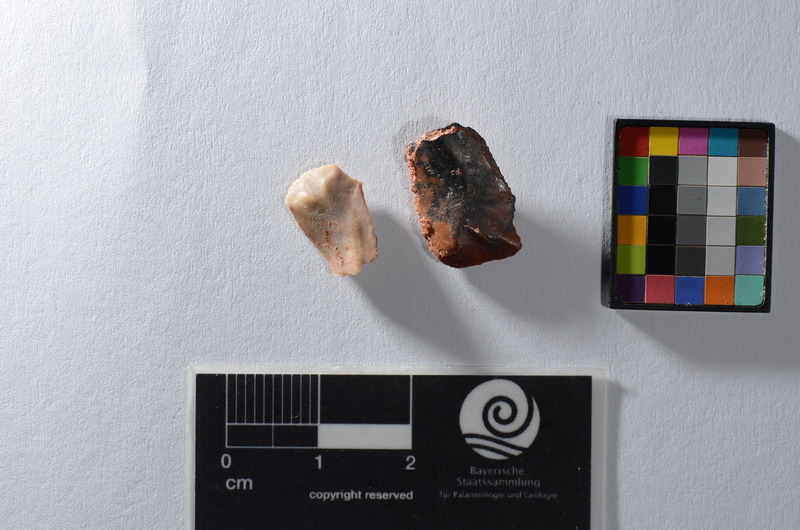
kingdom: Animalia
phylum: Chordata
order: Lepisosteiformes
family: Lepisosteidae
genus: Obaichthys
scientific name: Obaichthys
